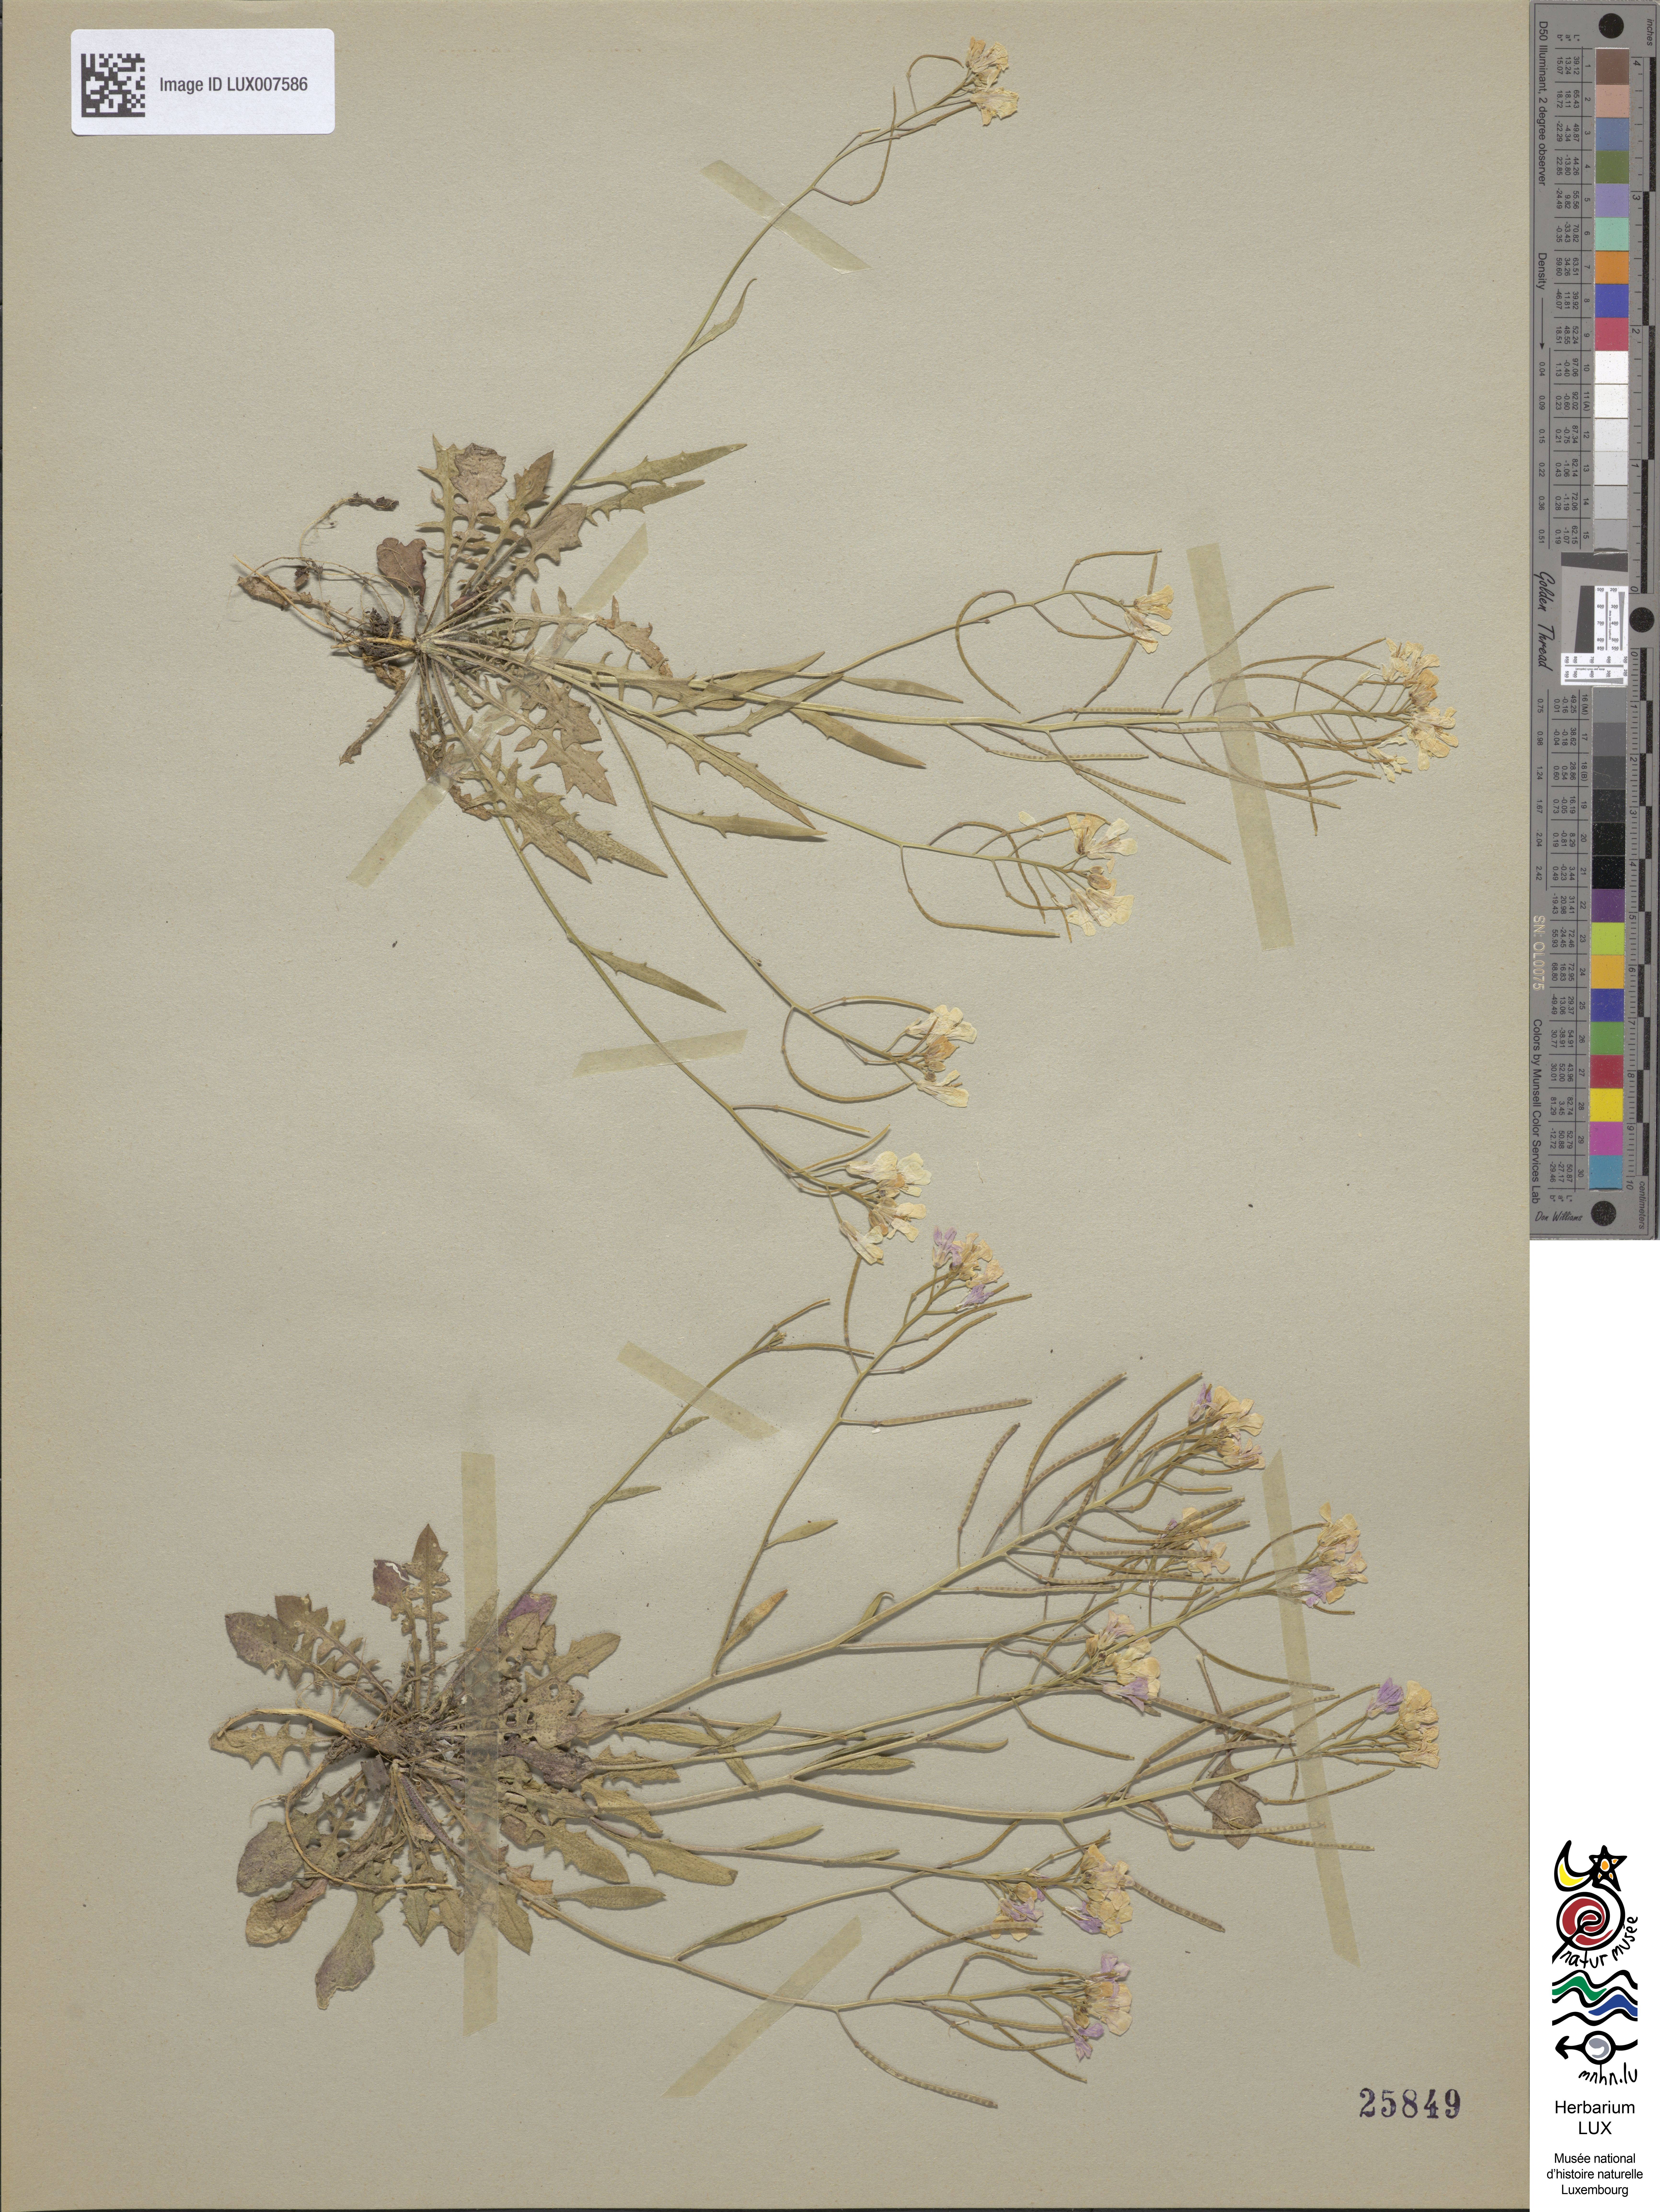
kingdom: Plantae
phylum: Tracheophyta
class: Magnoliopsida
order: Brassicales
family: Brassicaceae
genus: Arabidopsis
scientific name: Arabidopsis arenosa
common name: Sand rock-cress
